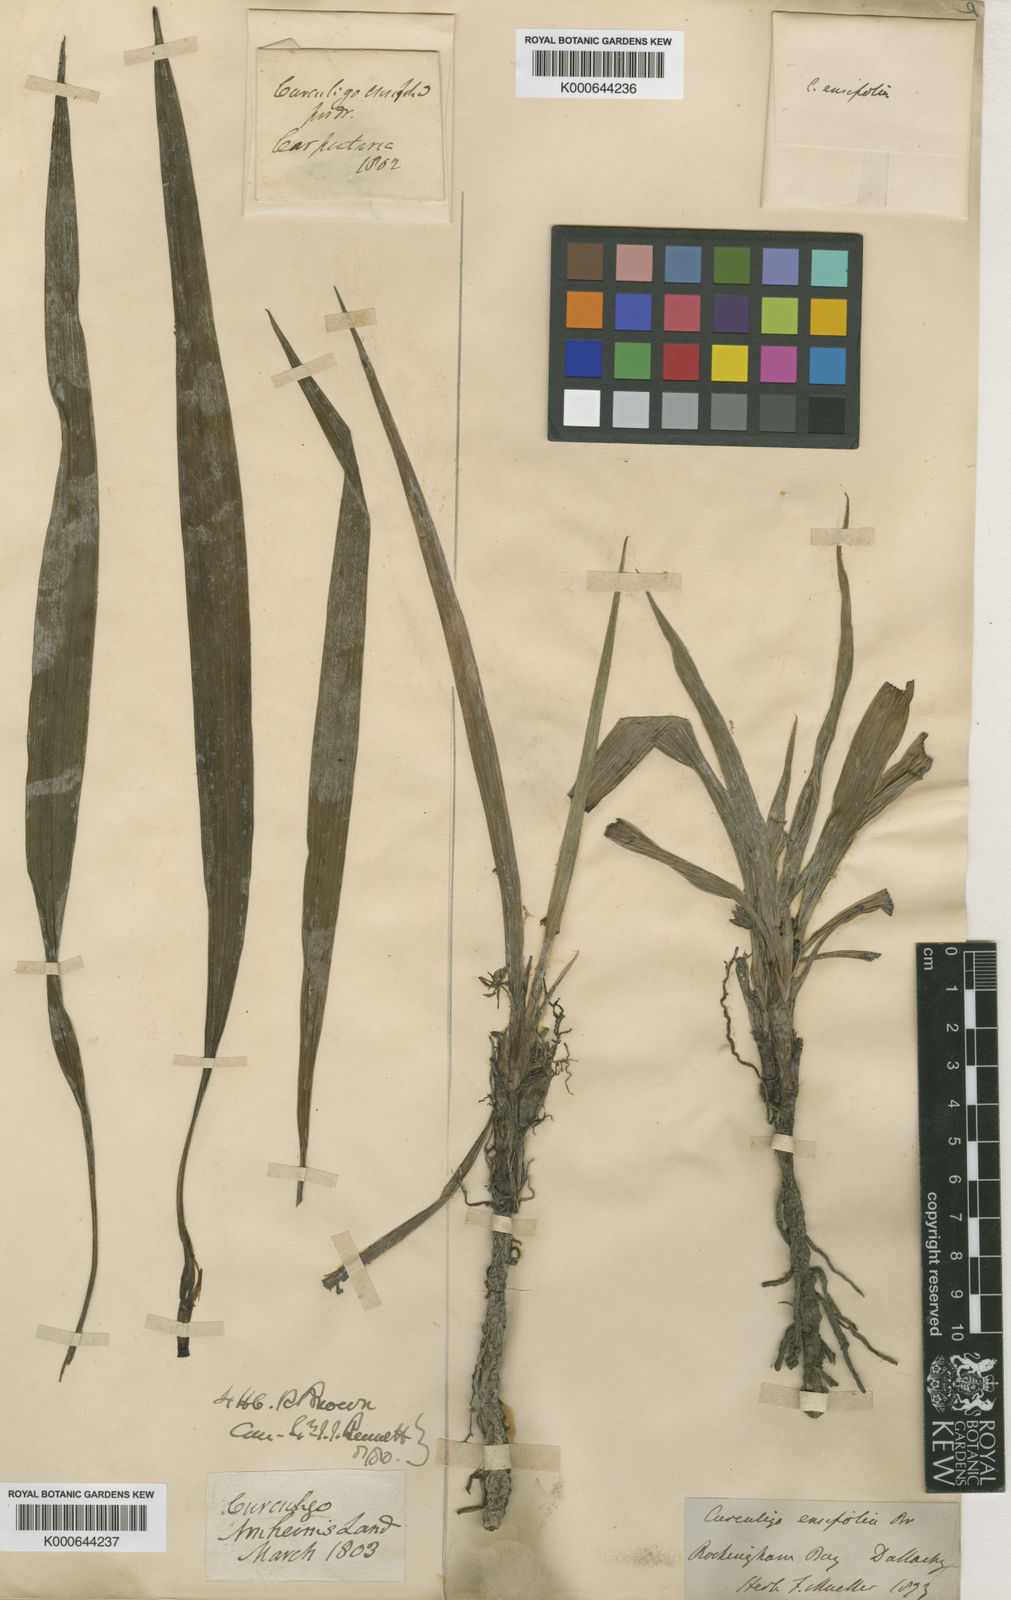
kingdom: Plantae
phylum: Tracheophyta
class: Liliopsida
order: Asparagales
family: Hypoxidaceae
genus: Curculigo
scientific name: Curculigo orchioides
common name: Golden eye-grass
